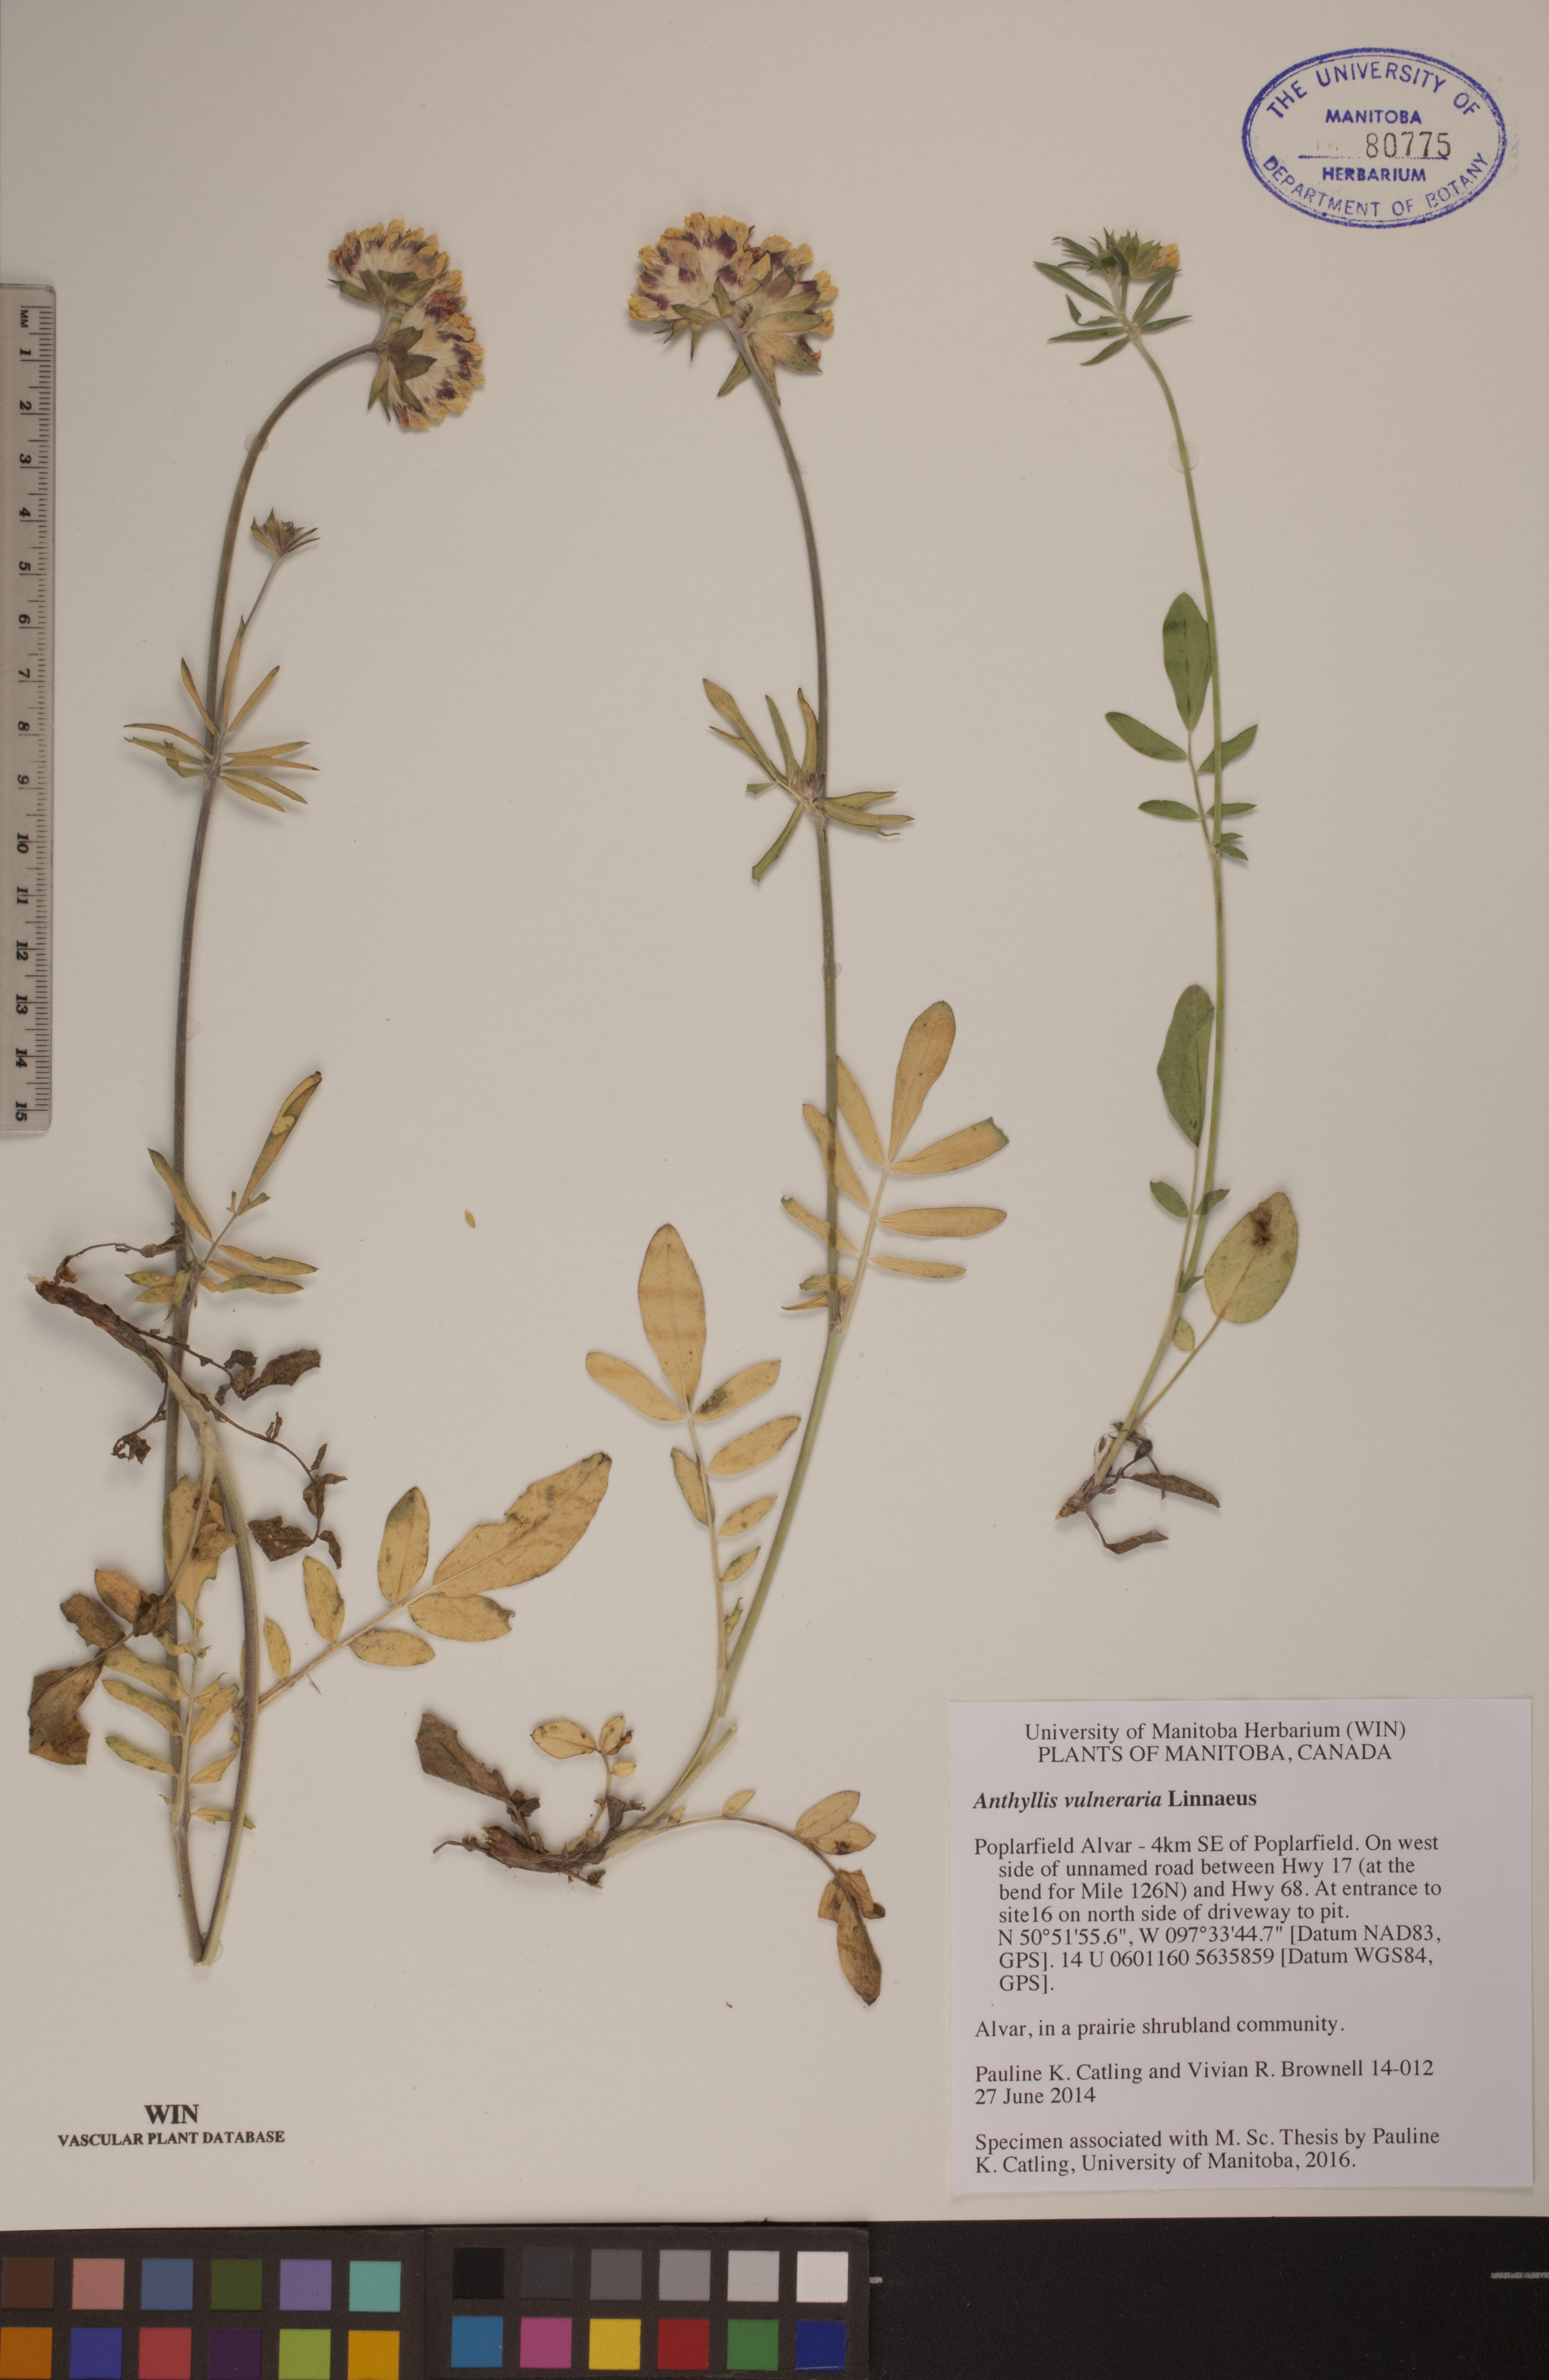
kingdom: Plantae
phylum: Tracheophyta
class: Magnoliopsida
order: Fabales
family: Fabaceae
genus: Anthyllis
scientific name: Anthyllis vulneraria
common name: Kidney vetch
